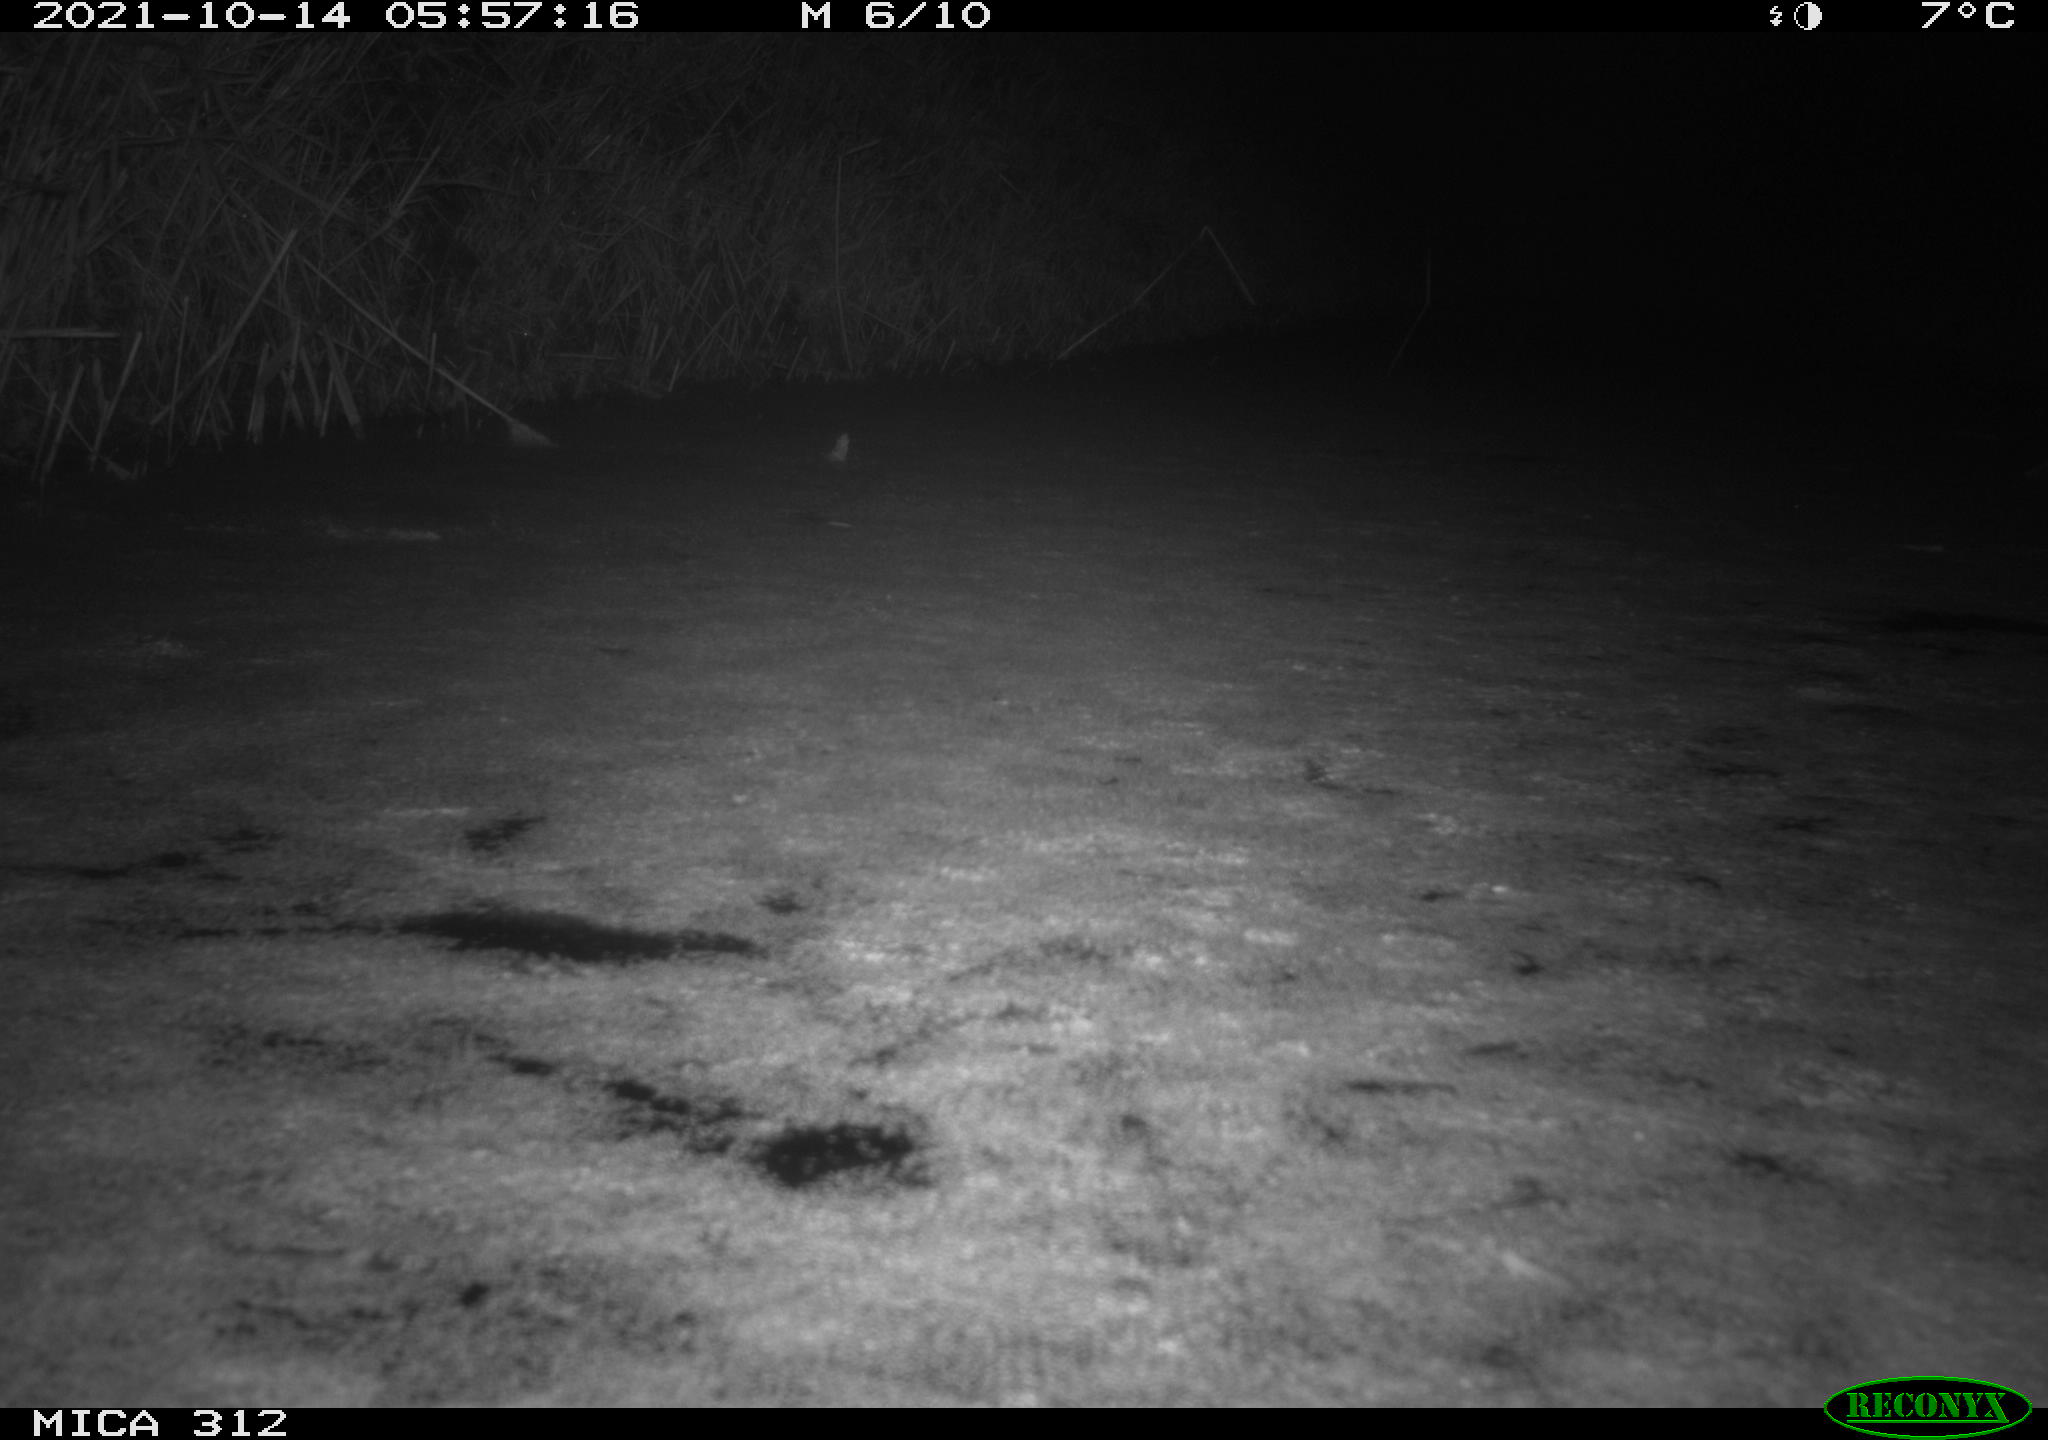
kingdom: Animalia
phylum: Chordata
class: Mammalia
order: Rodentia
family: Muridae
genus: Rattus
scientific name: Rattus norvegicus
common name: Brown rat
